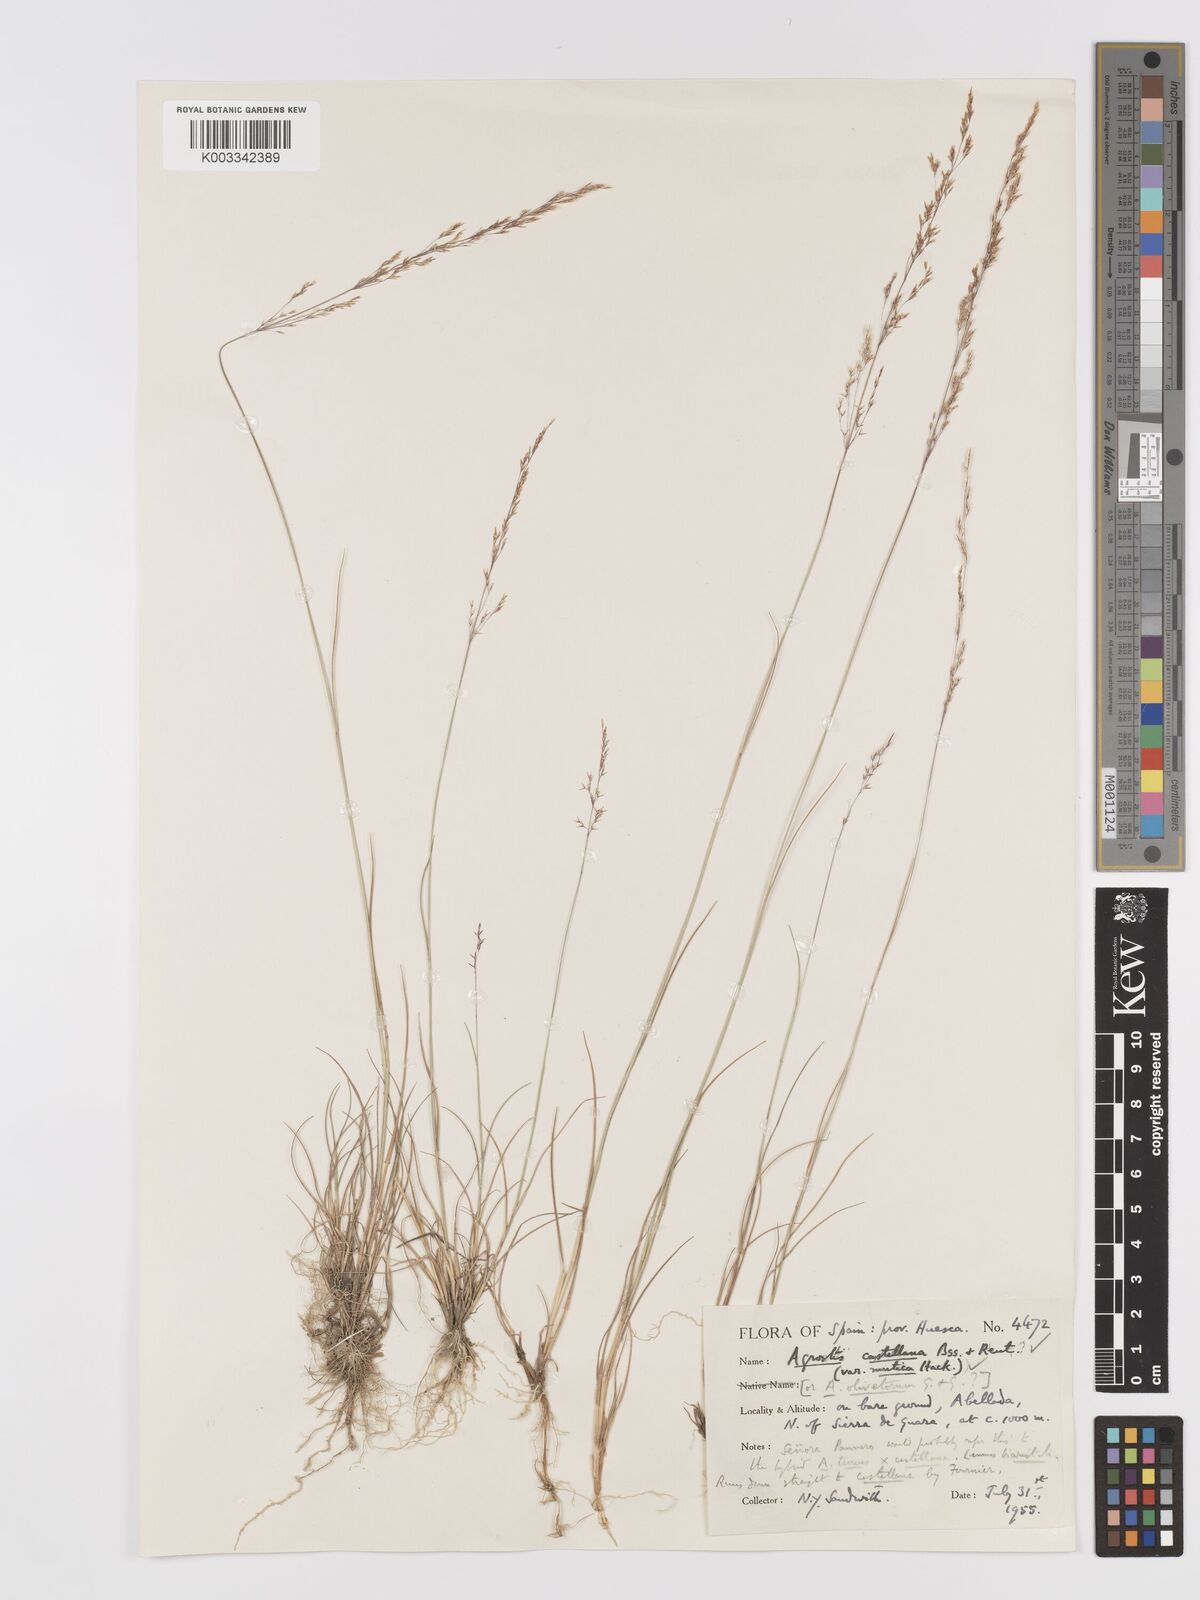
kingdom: Plantae
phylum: Tracheophyta
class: Liliopsida
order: Poales
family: Poaceae
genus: Agrostis
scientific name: Agrostis castellana
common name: Highland bent
